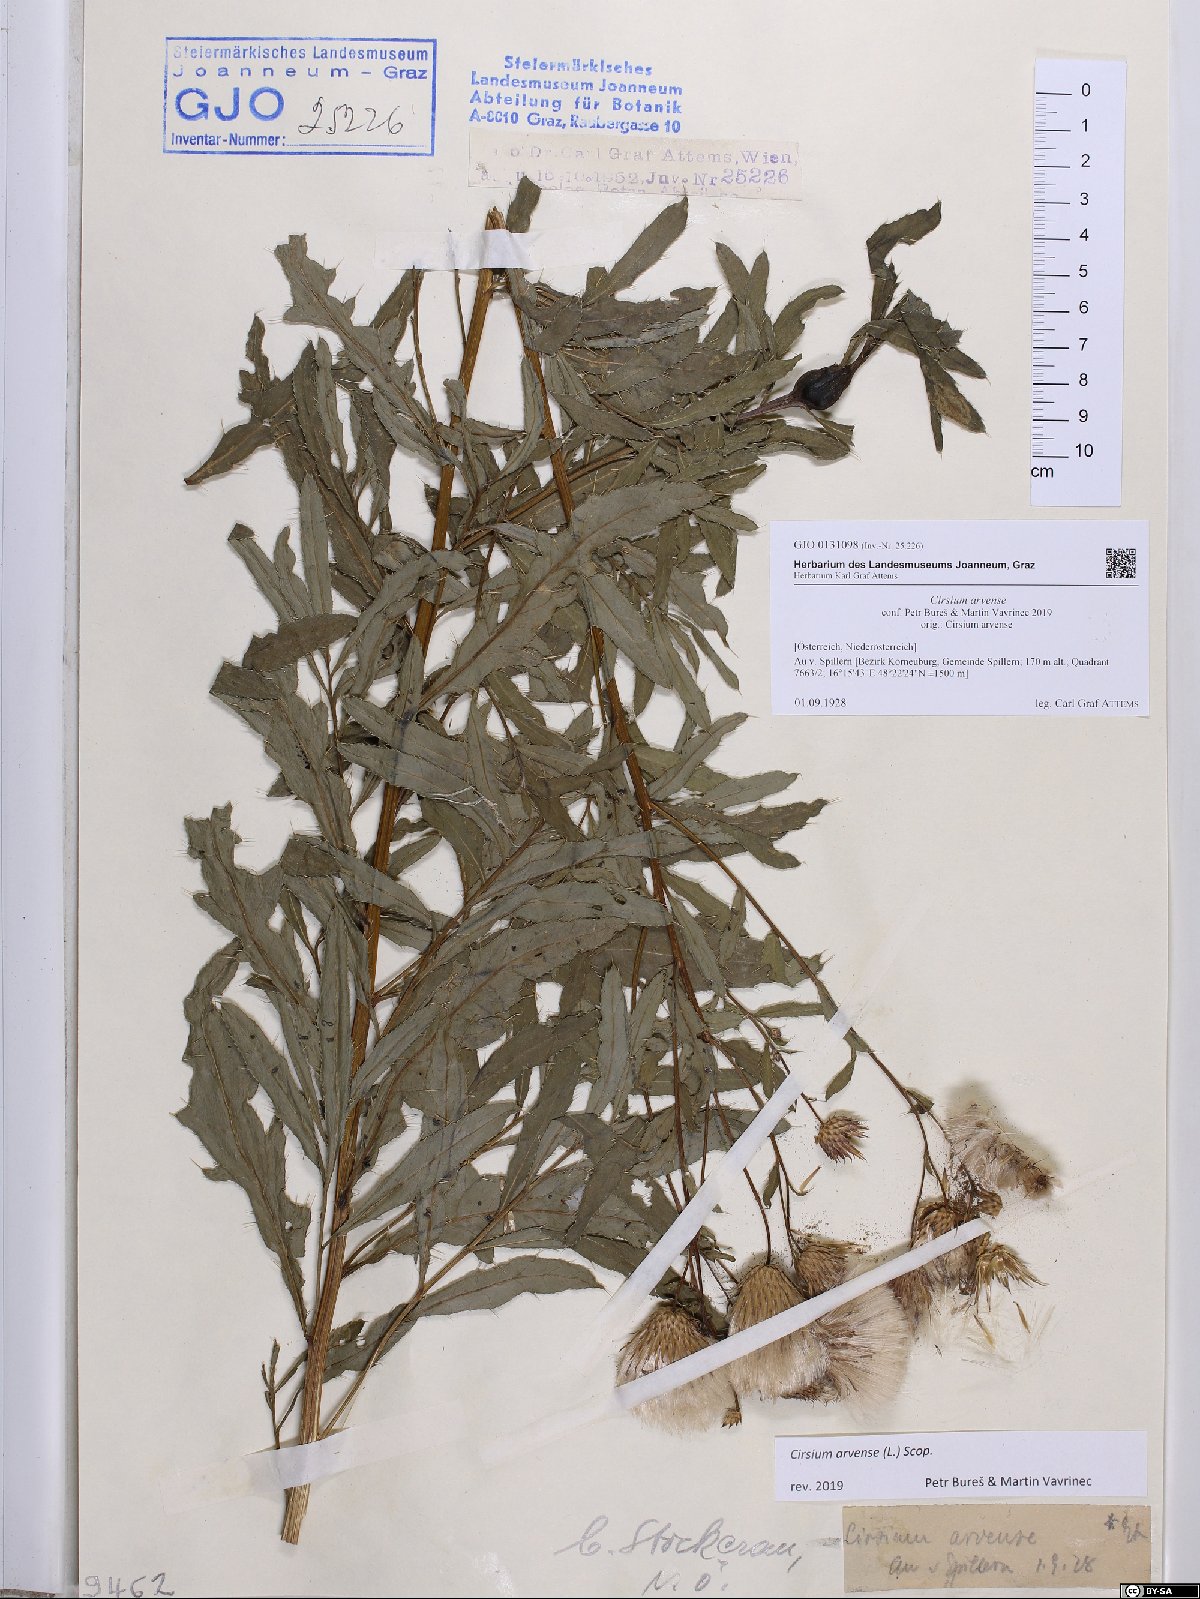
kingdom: Plantae
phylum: Tracheophyta
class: Magnoliopsida
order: Asterales
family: Asteraceae
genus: Cirsium
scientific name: Cirsium arvense
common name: Creeping thistle
